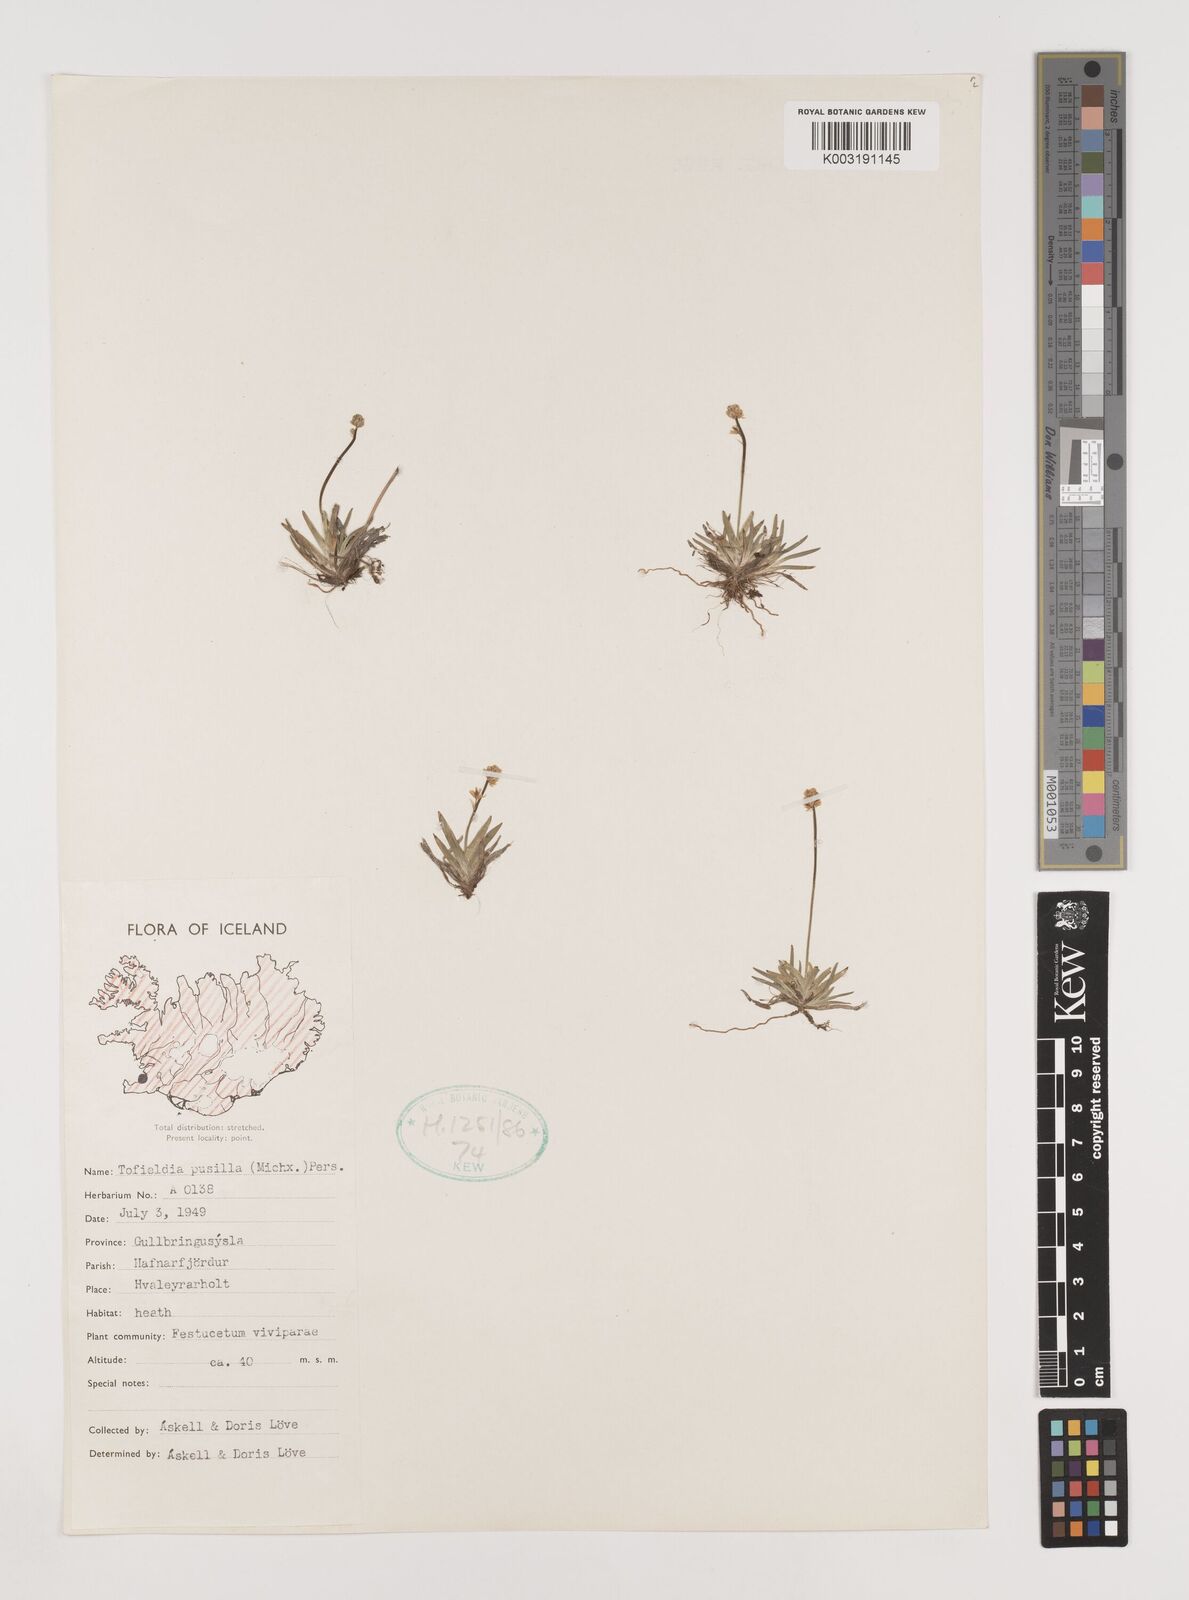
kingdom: Plantae
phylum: Tracheophyta
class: Liliopsida
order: Alismatales
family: Tofieldiaceae
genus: Tofieldia
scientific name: Tofieldia pusilla
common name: Scottish false asphodel
